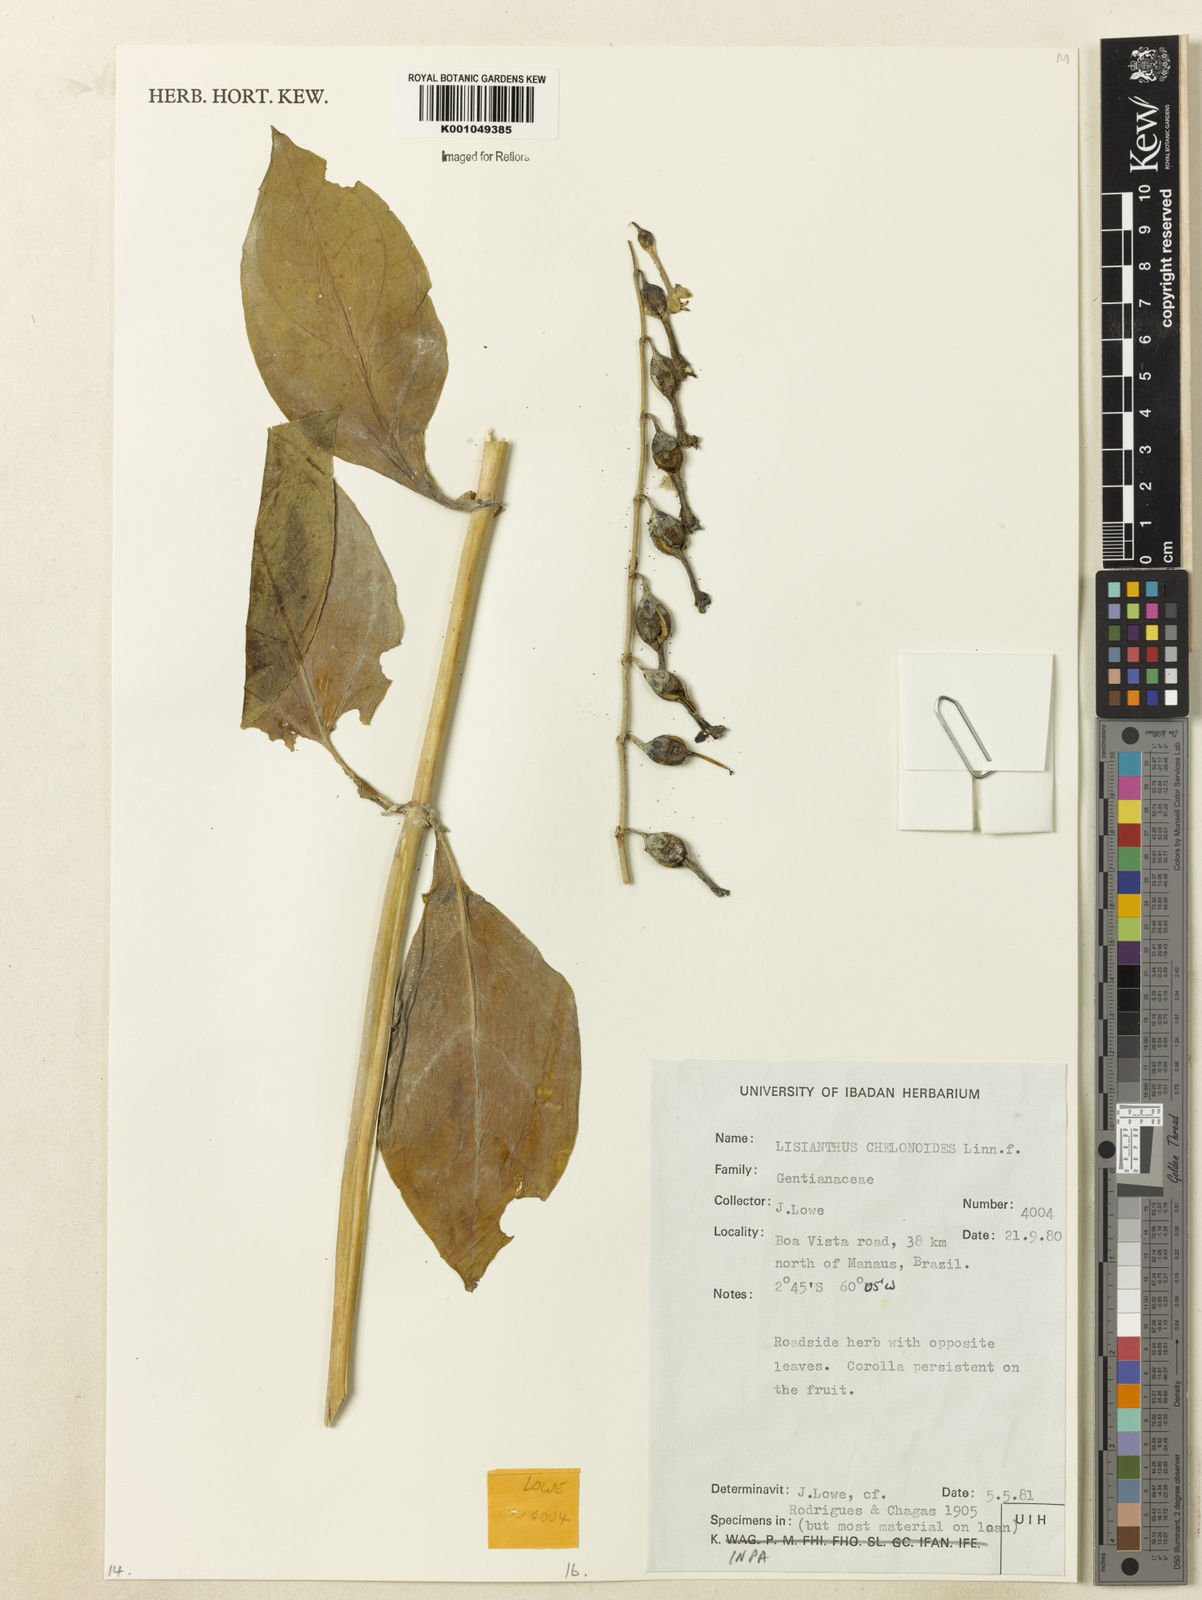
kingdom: Plantae
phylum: Tracheophyta
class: Magnoliopsida
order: Gentianales
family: Gentianaceae
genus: Chelonanthus
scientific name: Chelonanthus alatus
